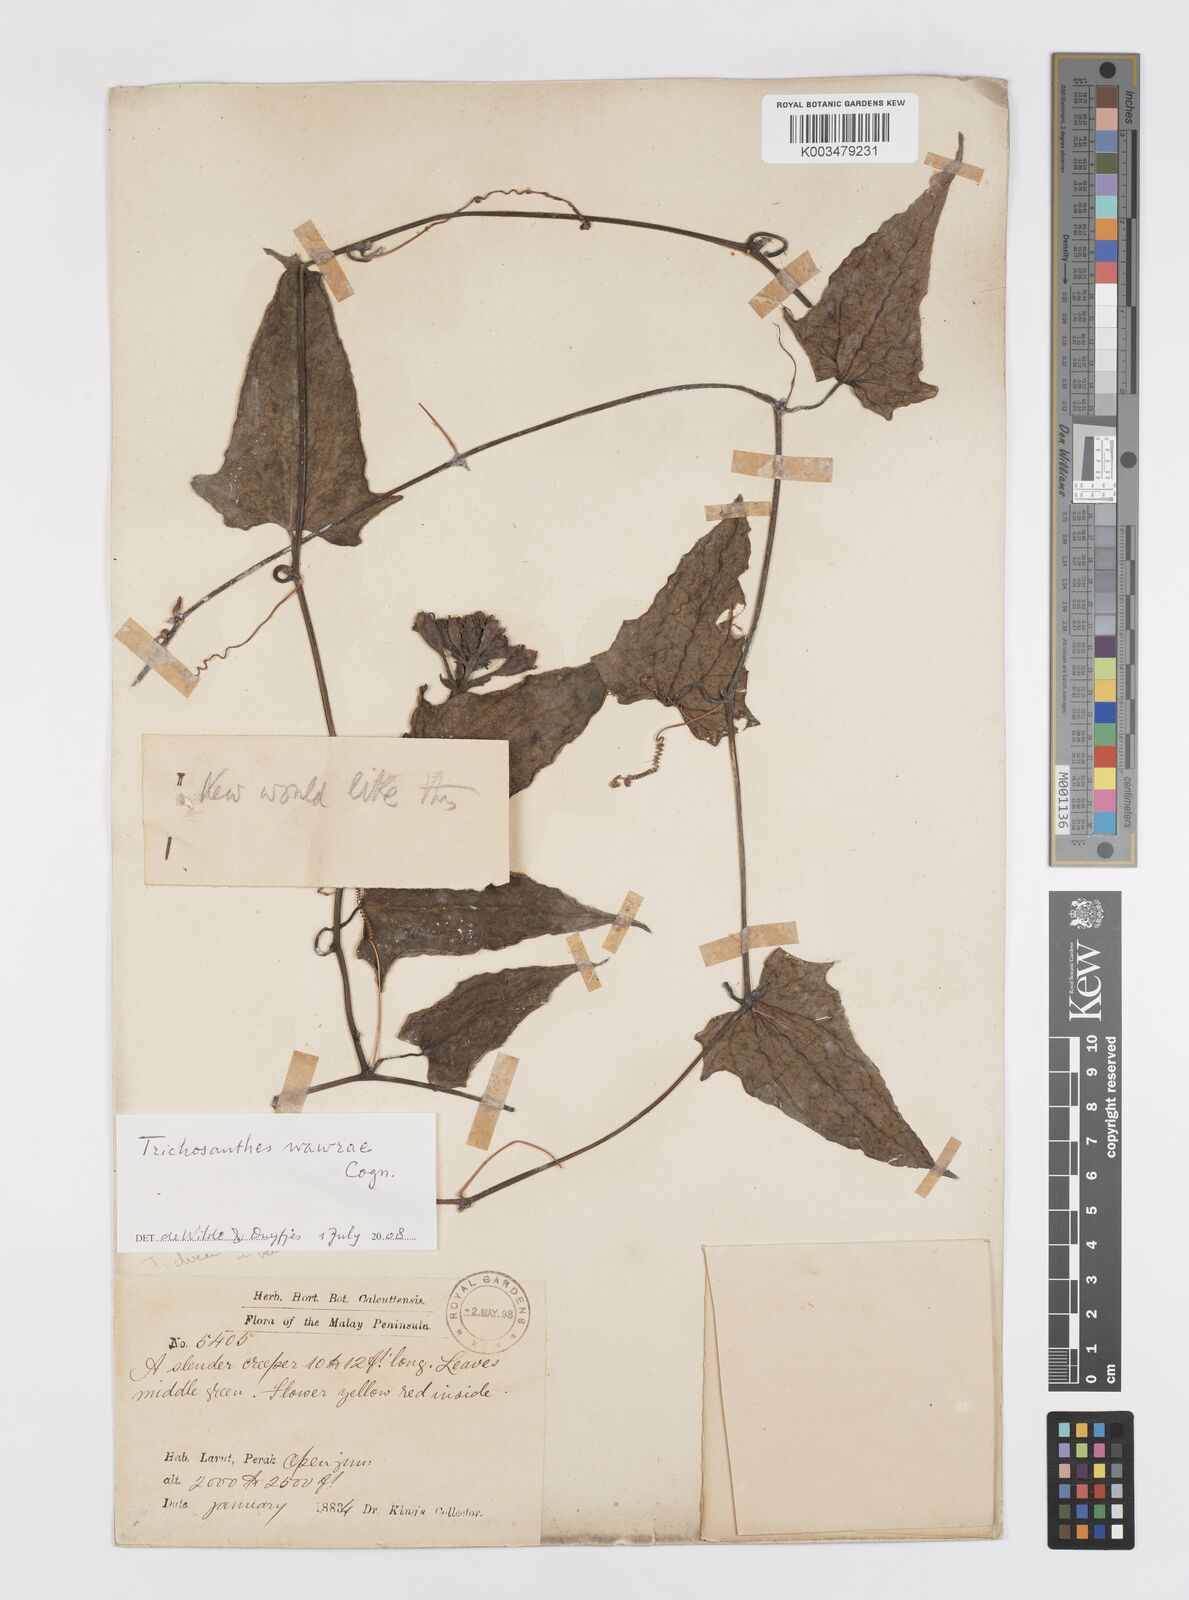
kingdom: Plantae
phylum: Tracheophyta
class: Magnoliopsida
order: Cucurbitales
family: Cucurbitaceae
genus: Trichosanthes
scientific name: Trichosanthes wawrae
